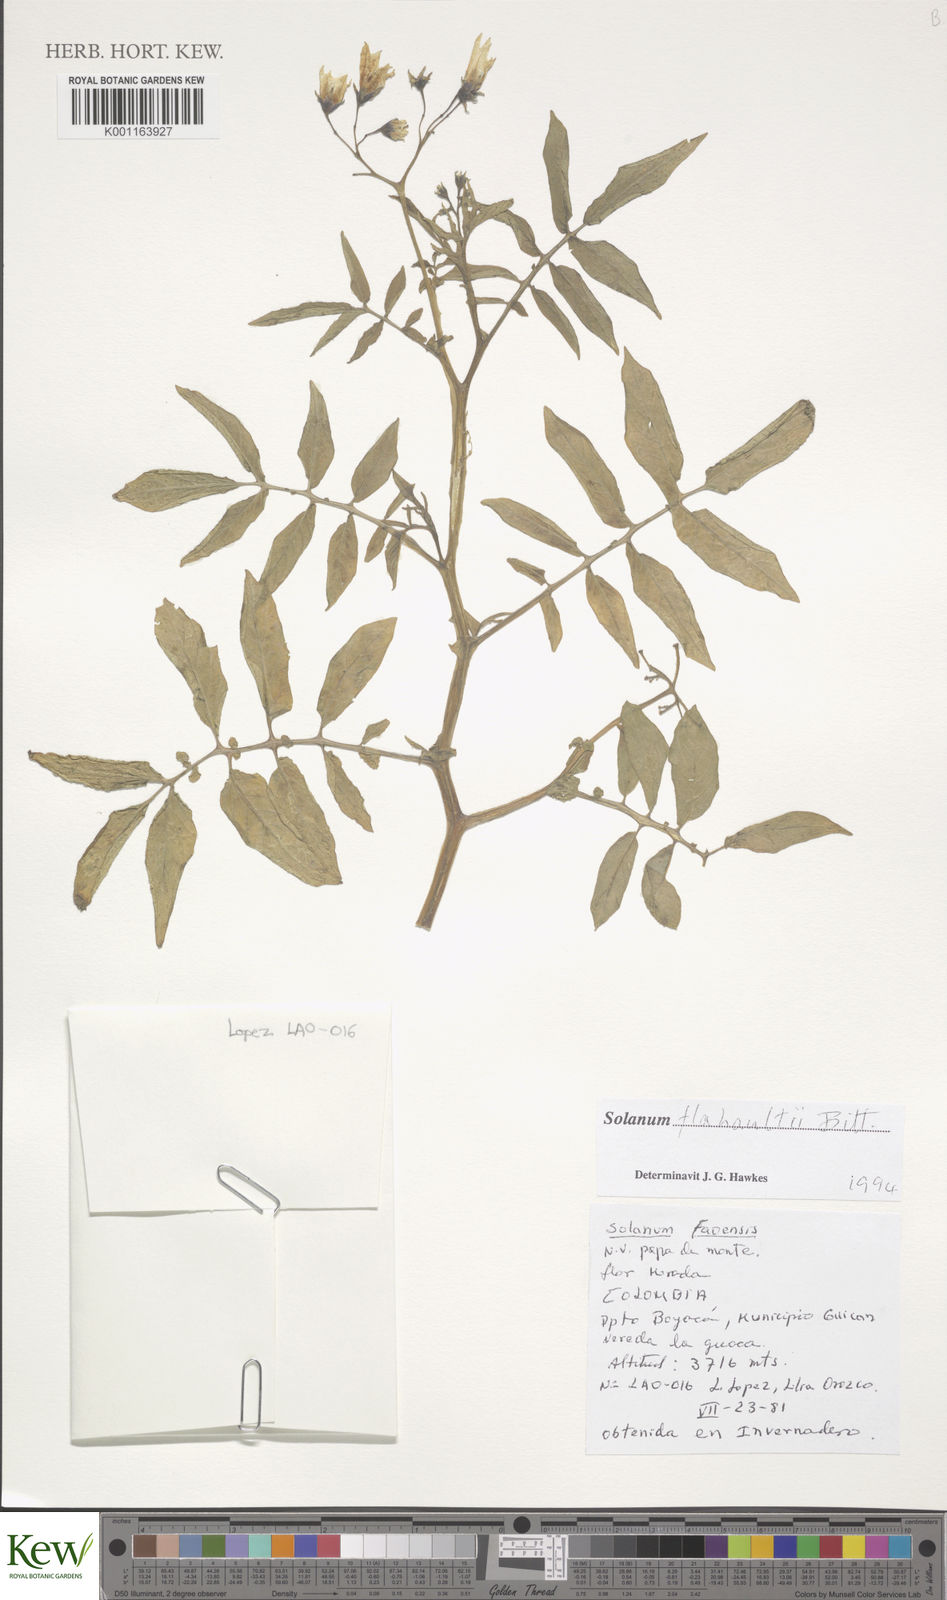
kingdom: Plantae
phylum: Tracheophyta
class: Magnoliopsida
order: Solanales
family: Solanaceae
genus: Solanum
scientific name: Solanum flahaultii
